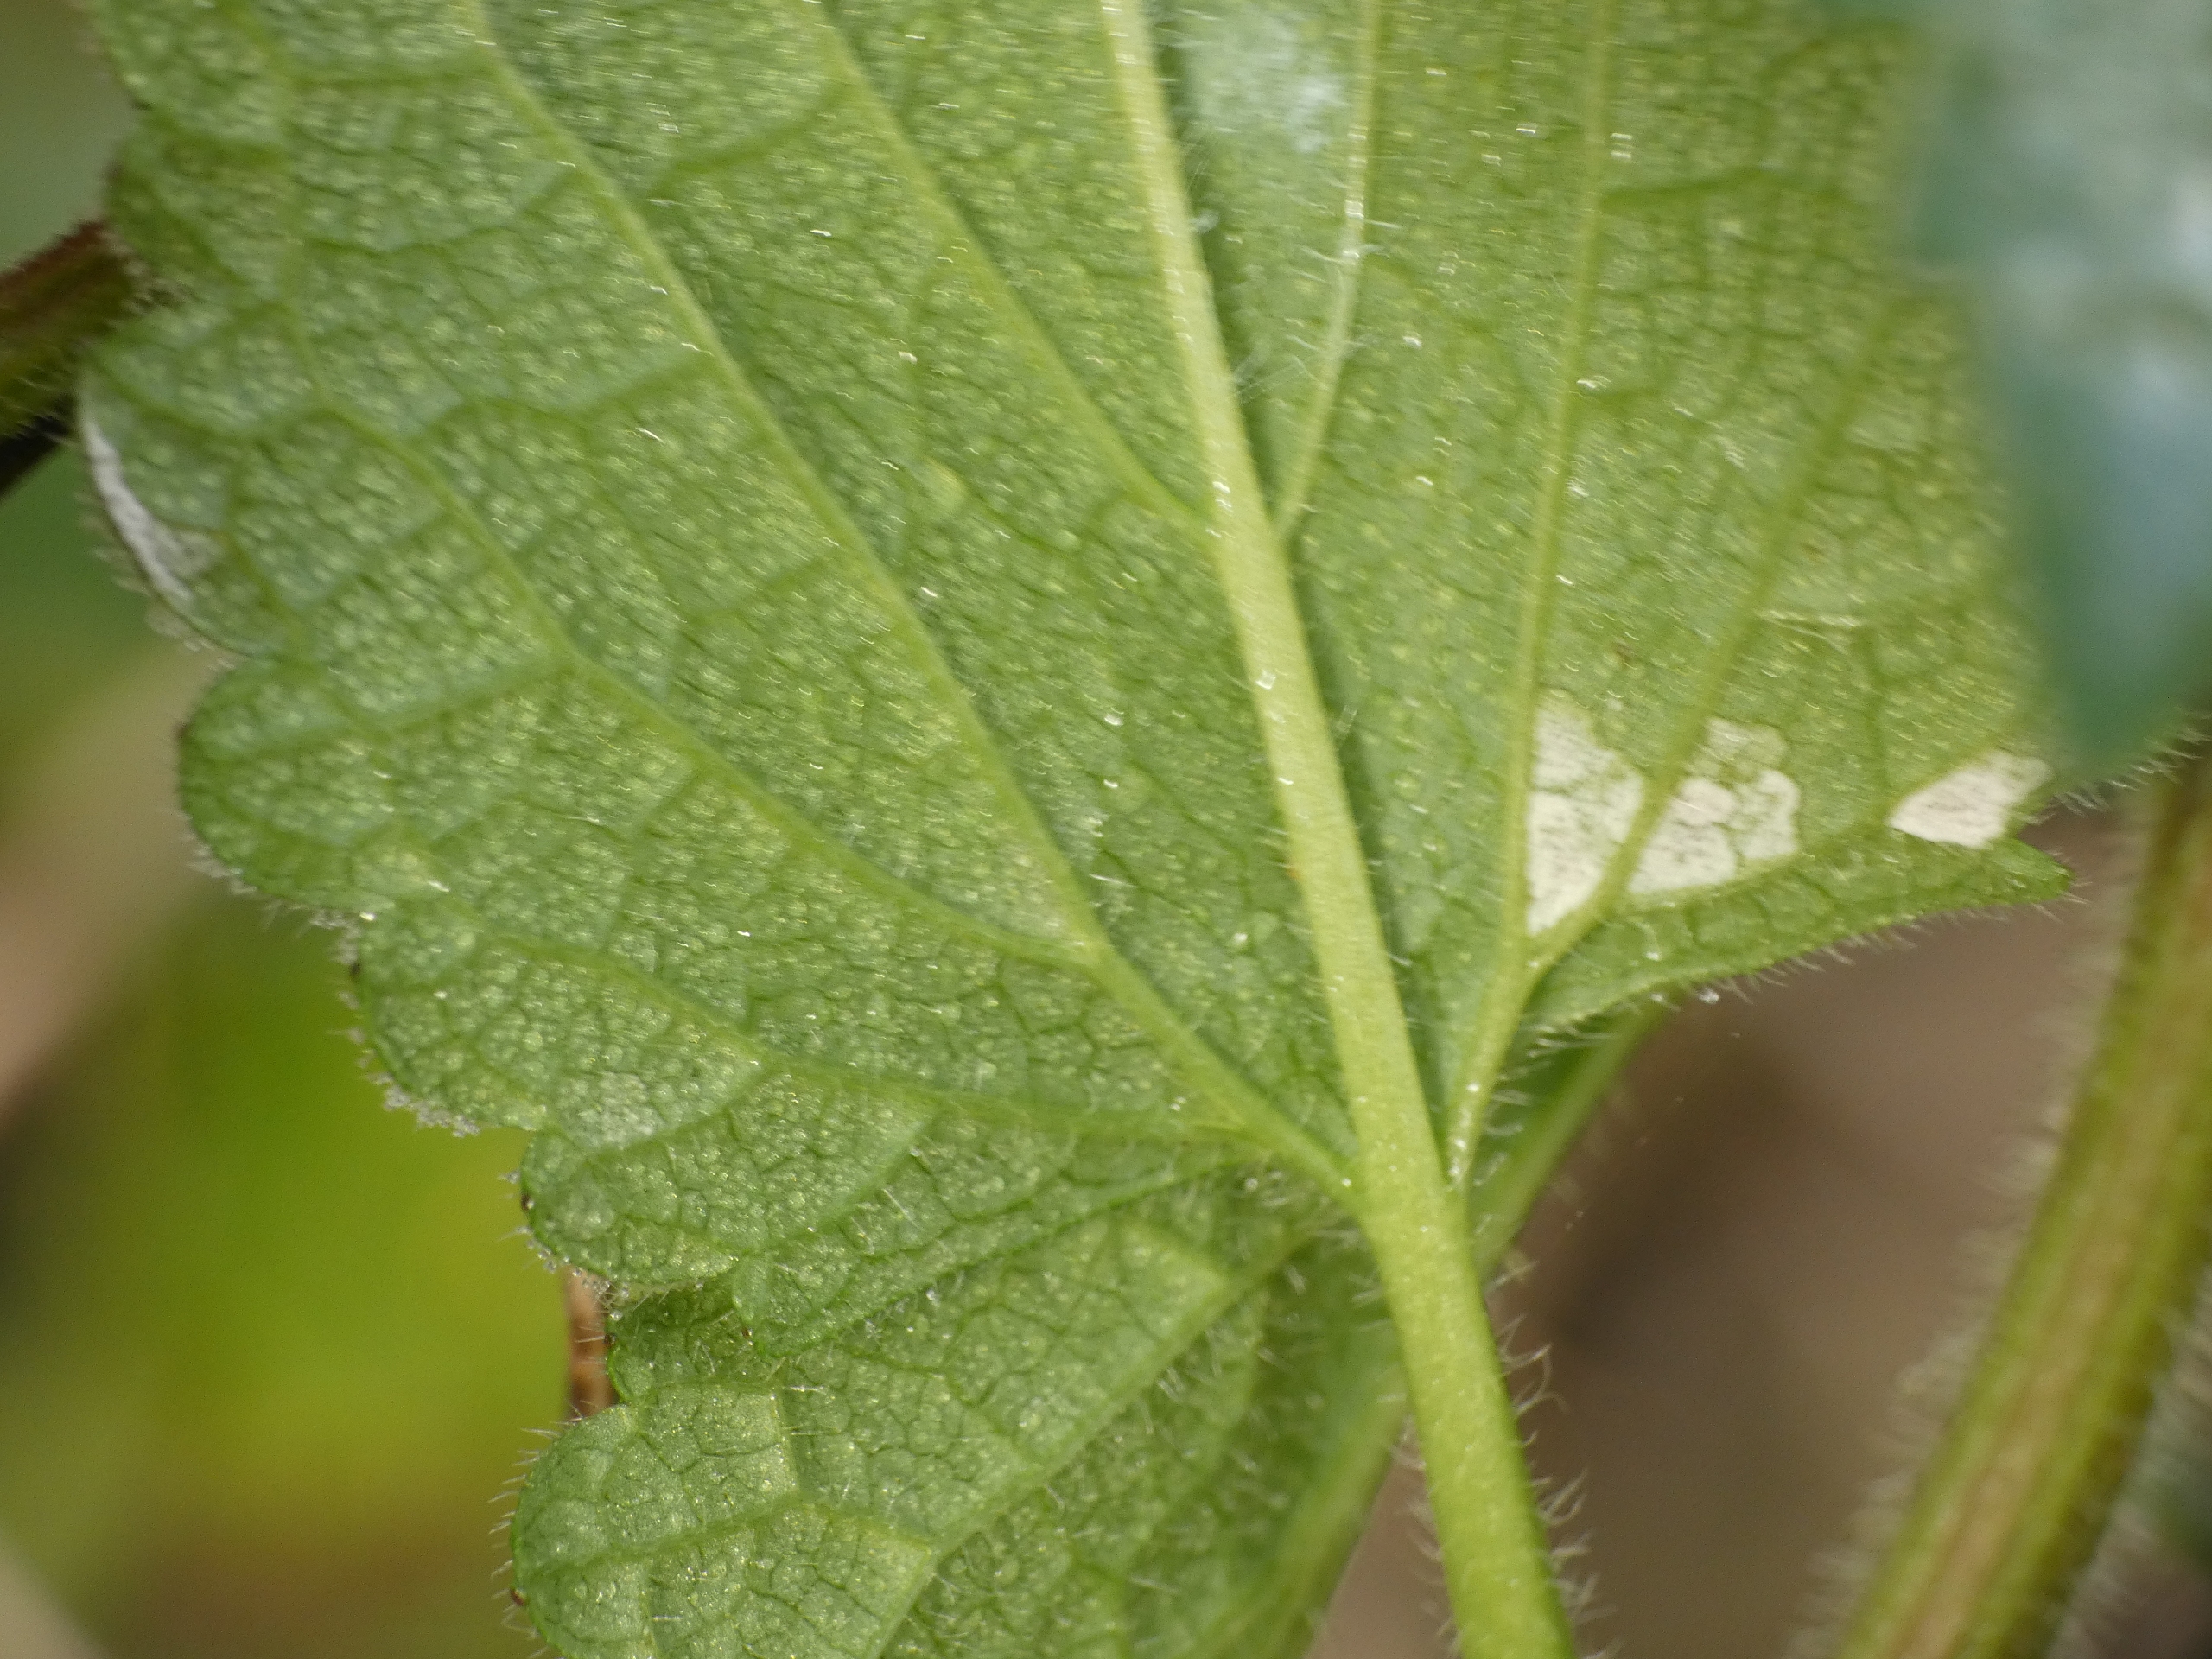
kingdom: Plantae
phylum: Tracheophyta
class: Magnoliopsida
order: Lamiales
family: Lamiaceae
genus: Lamium
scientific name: Lamium album
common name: Døvnælde
